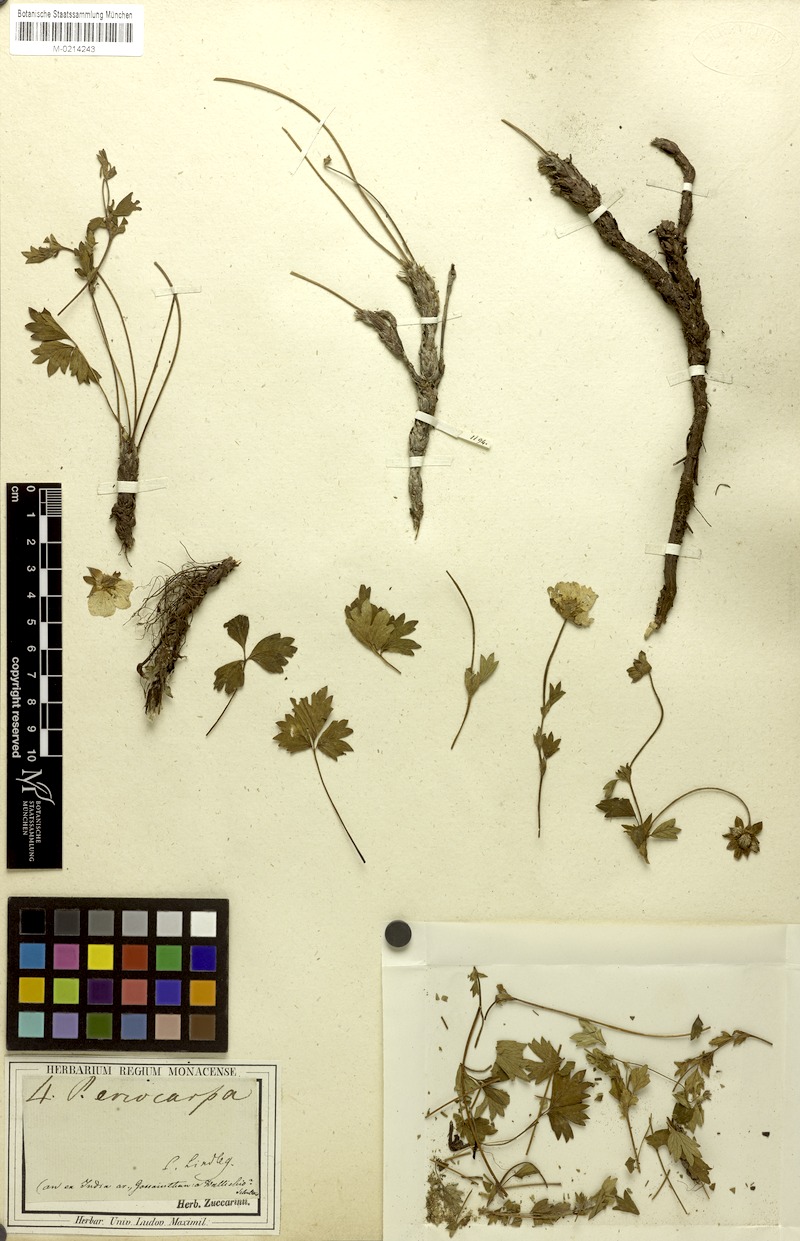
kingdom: Plantae
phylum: Tracheophyta
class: Magnoliopsida
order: Rosales
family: Rosaceae
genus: Potentilla
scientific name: Potentilla eriocarpa
